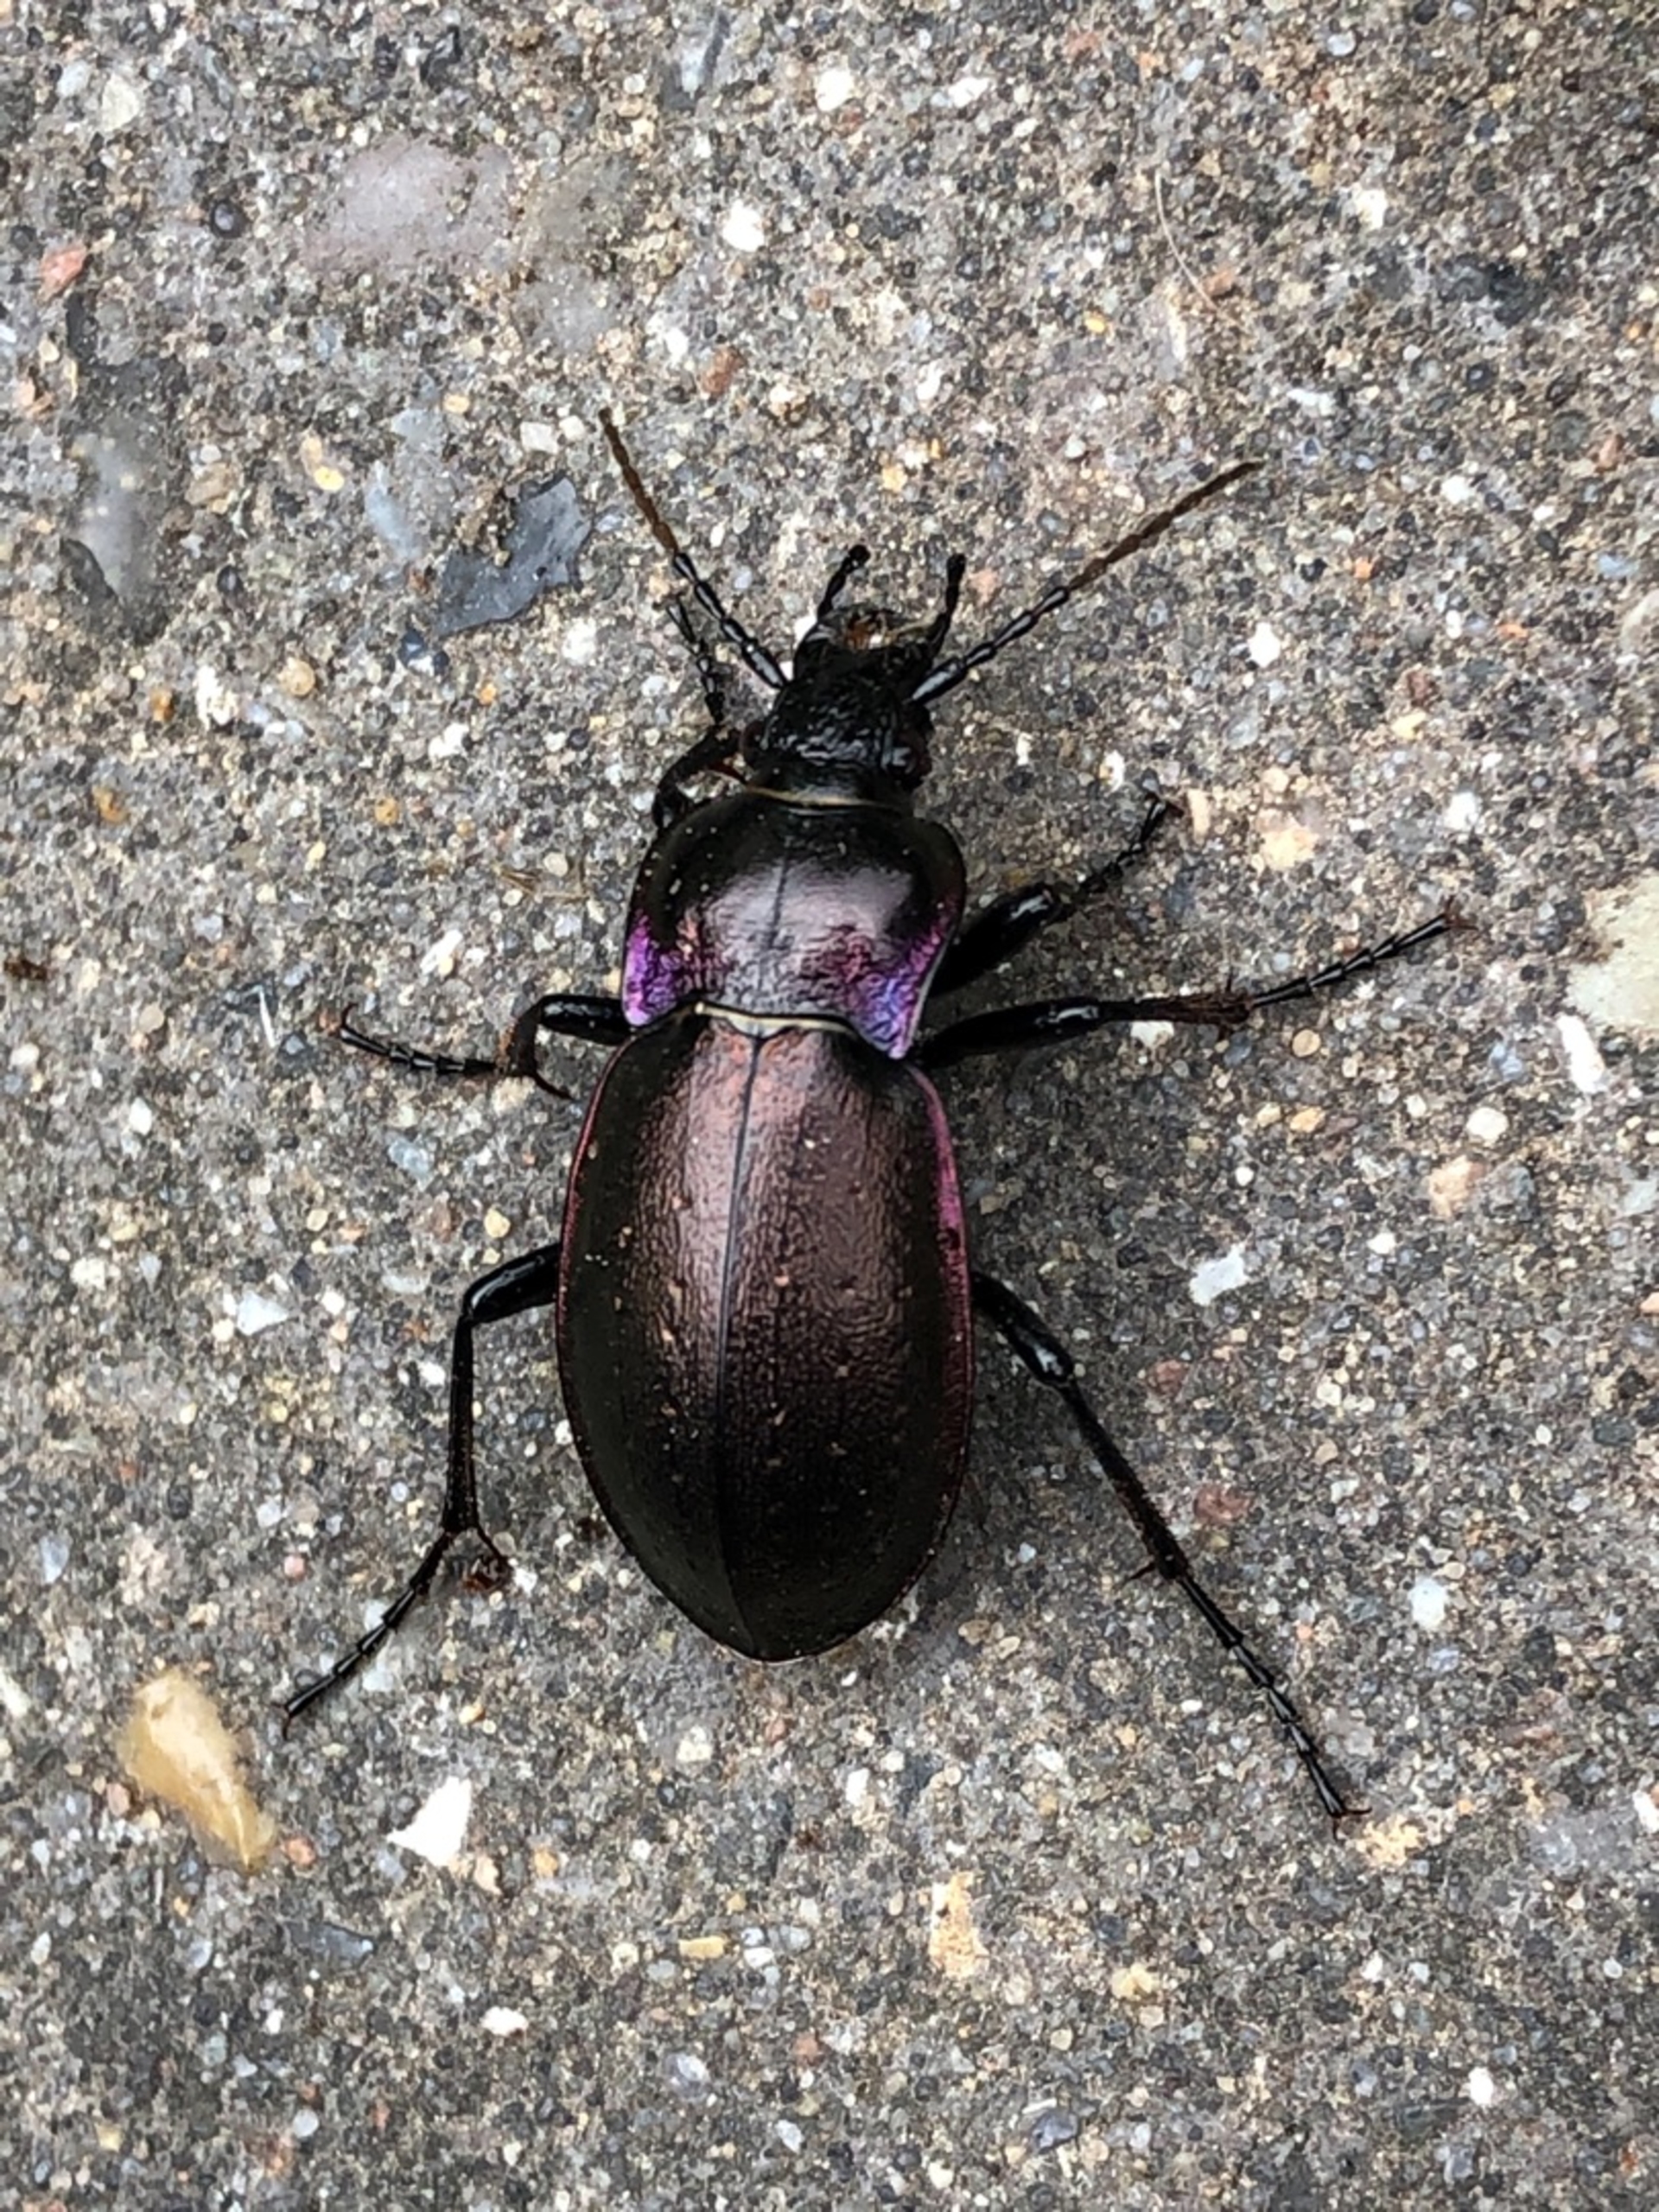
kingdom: Animalia
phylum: Arthropoda
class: Insecta
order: Coleoptera
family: Carabidae
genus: Carabus
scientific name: Carabus nemoralis
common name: Kratløber
